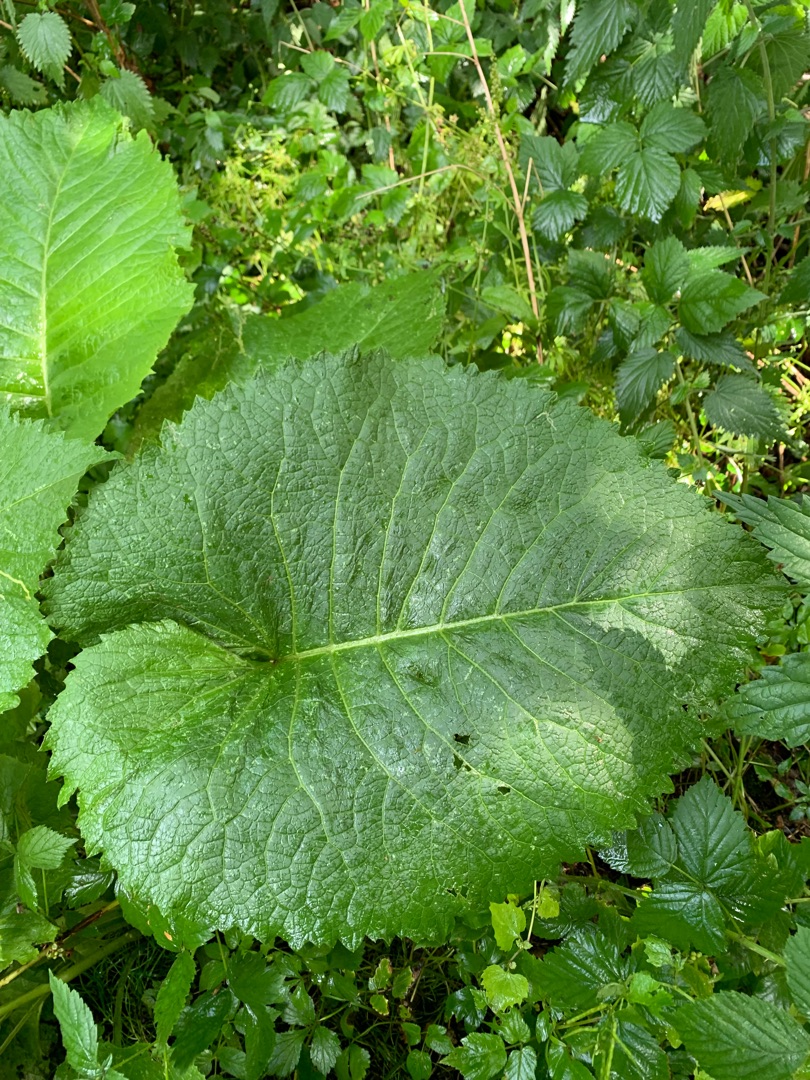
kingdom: Plantae
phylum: Tracheophyta
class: Magnoliopsida
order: Asterales
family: Asteraceae
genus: Telekia
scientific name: Telekia speciosa
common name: Tusindstråle
